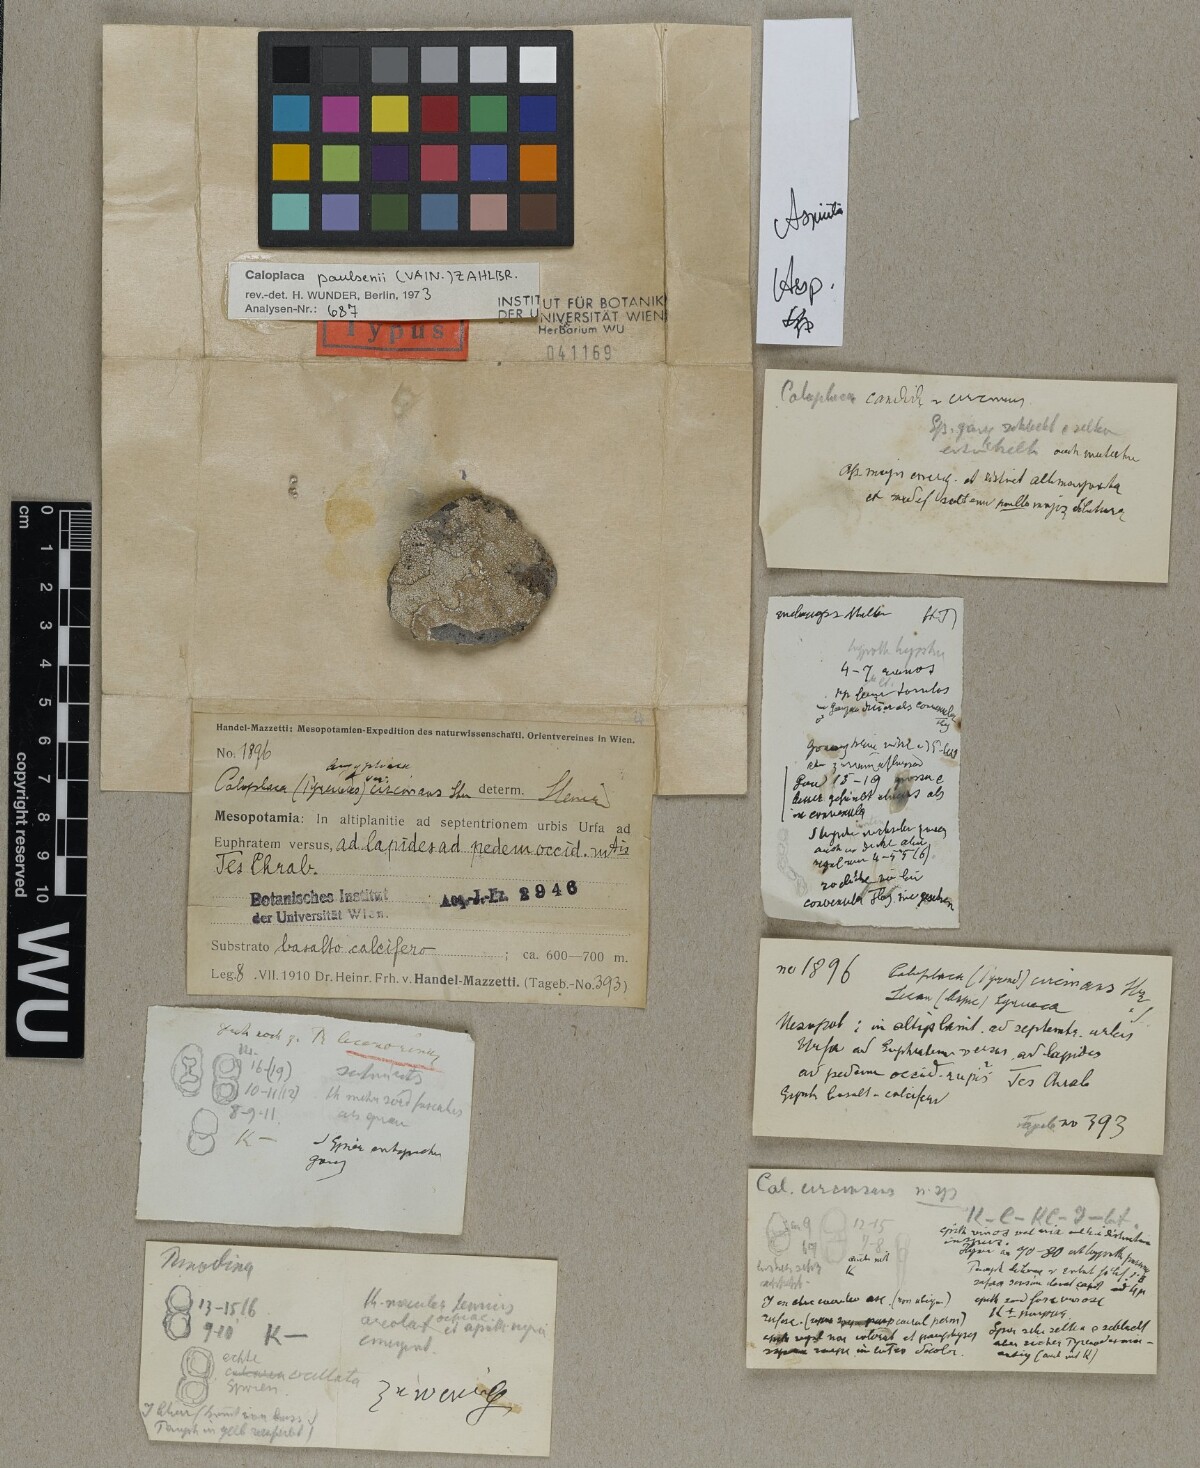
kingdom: Fungi
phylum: Ascomycota
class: Lecanoromycetes
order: Teloschistales
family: Teloschistaceae
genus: Caloplaca
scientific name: Caloplaca paulsenii
